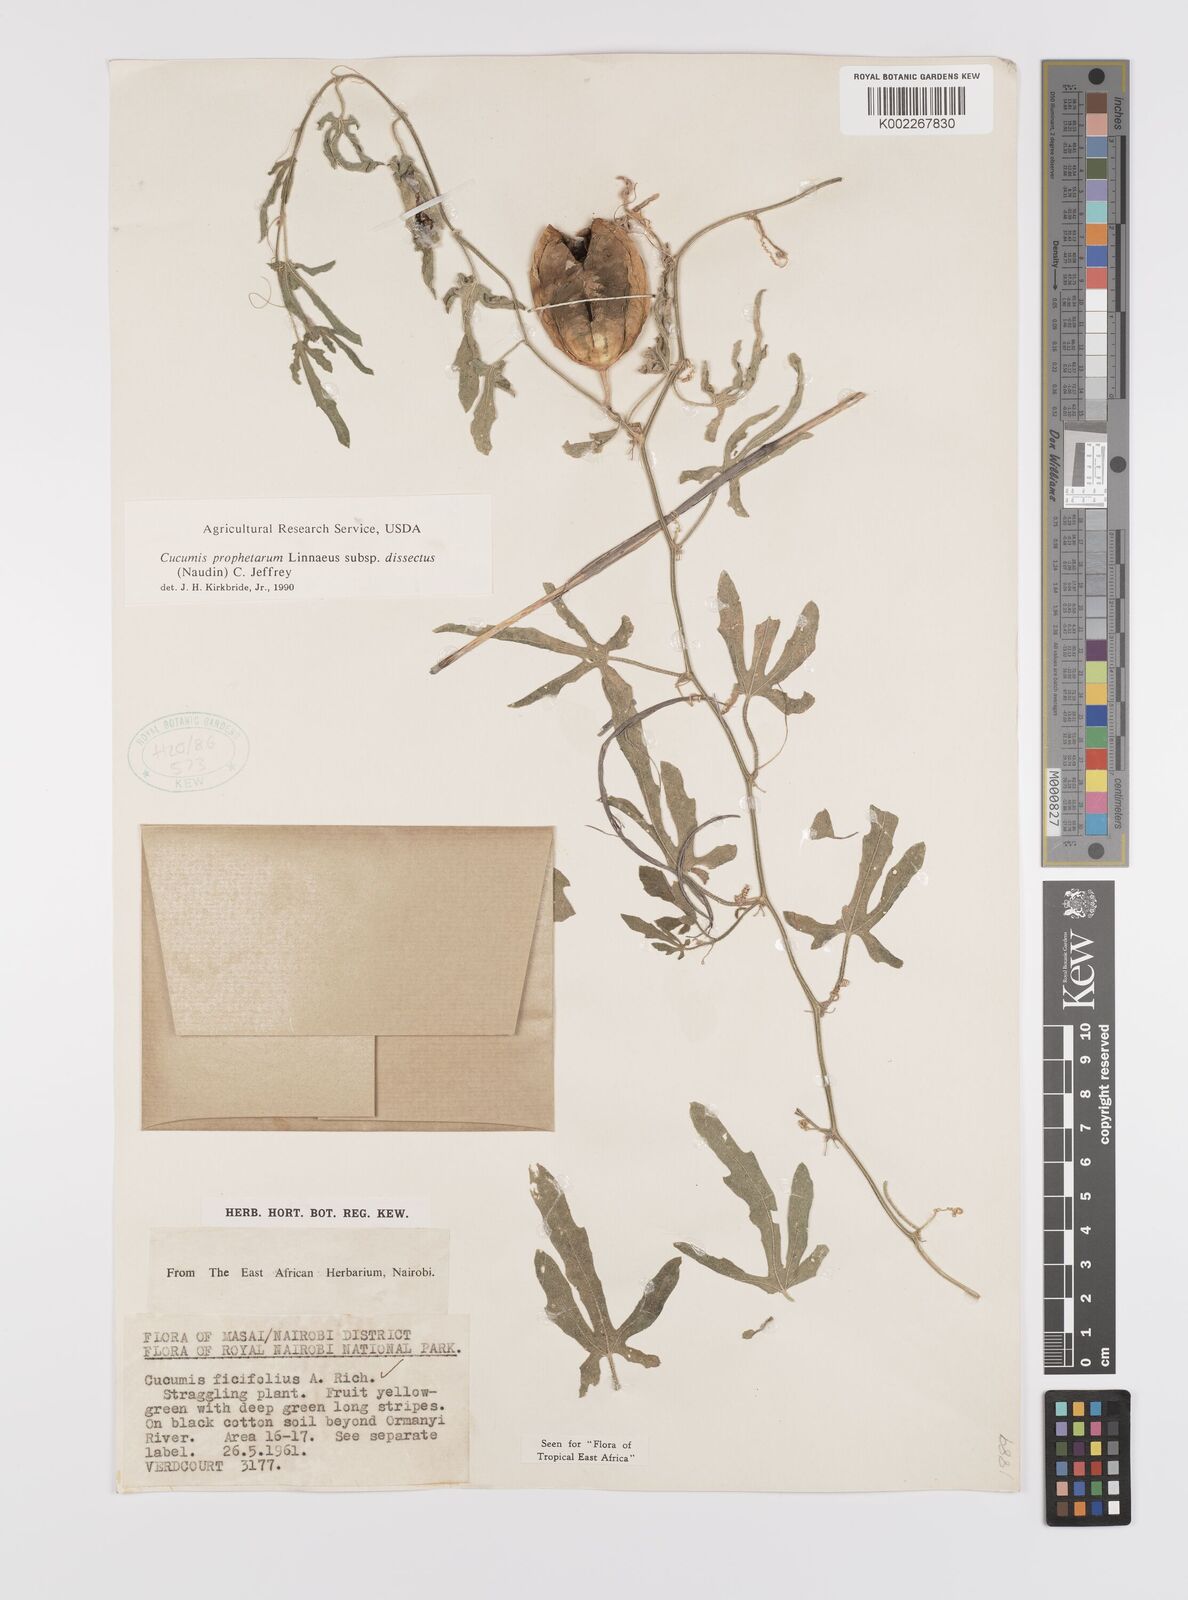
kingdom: Plantae
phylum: Tracheophyta
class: Magnoliopsida
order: Cucurbitales
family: Cucurbitaceae
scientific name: Cucurbitaceae
